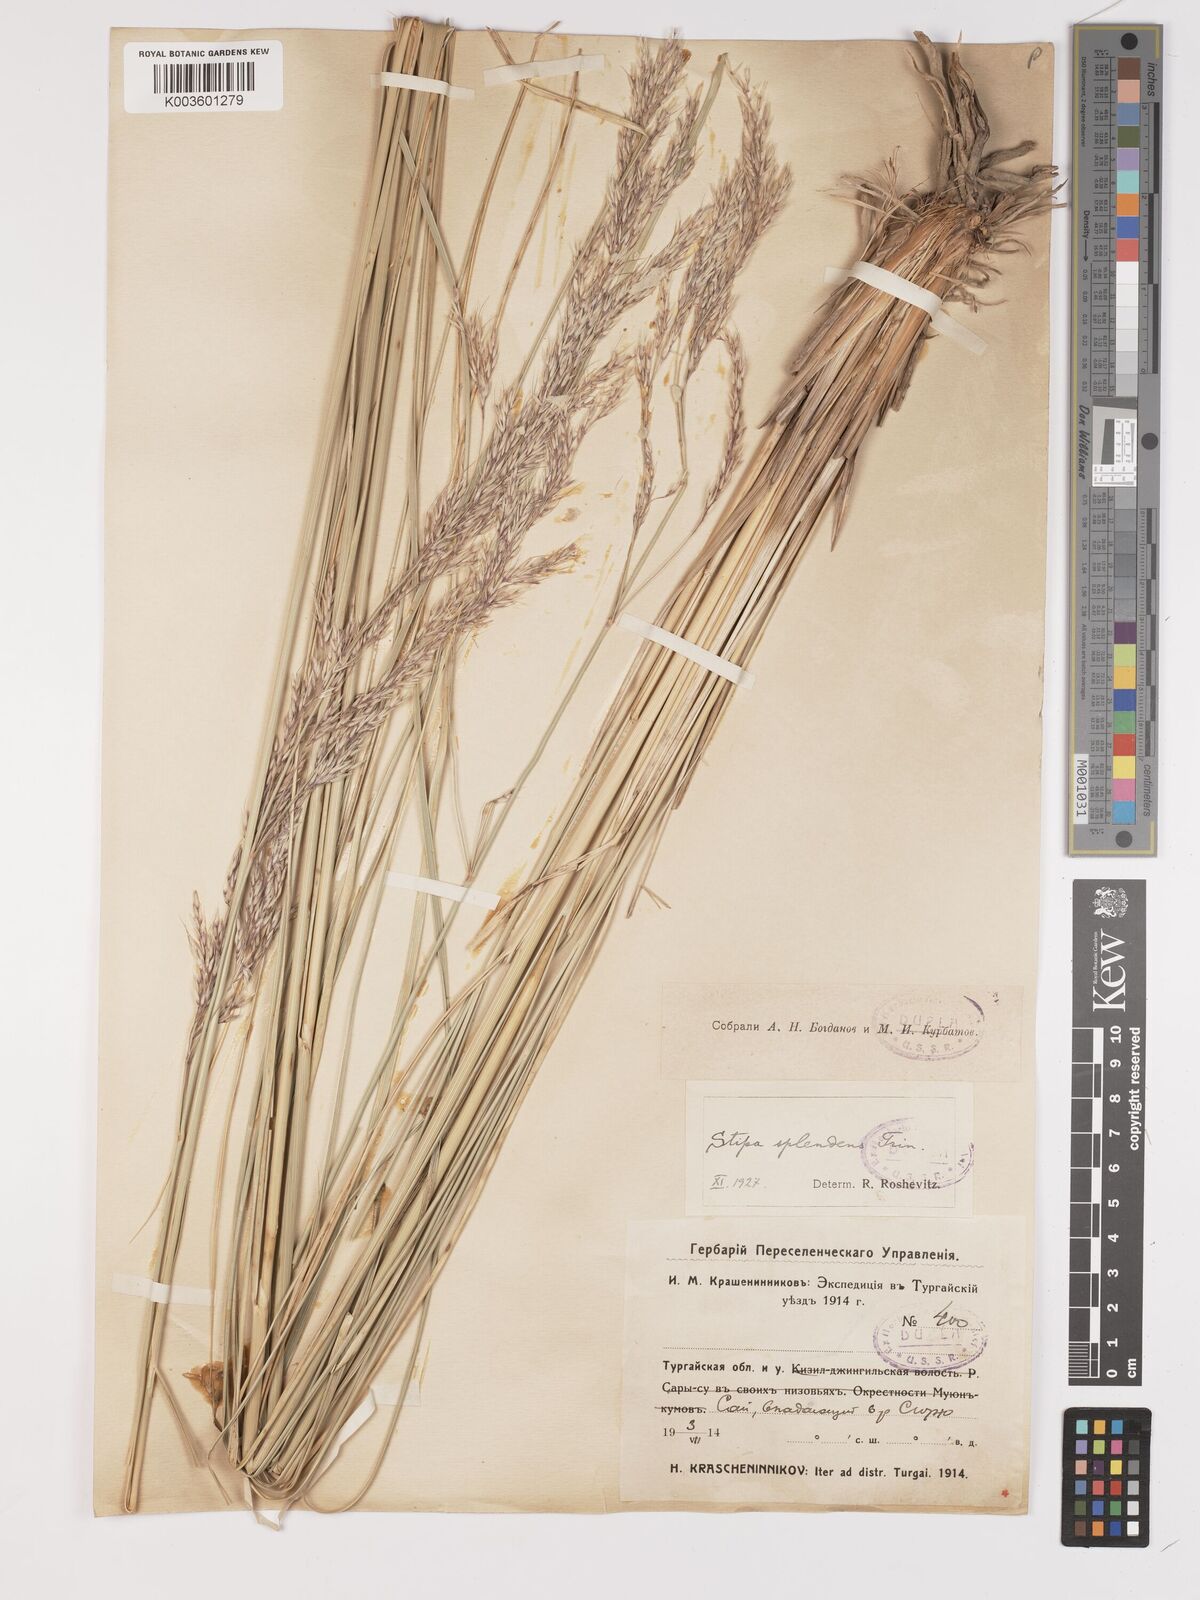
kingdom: Plantae
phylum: Tracheophyta
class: Liliopsida
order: Poales
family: Poaceae
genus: Neotrinia
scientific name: Neotrinia splendens
